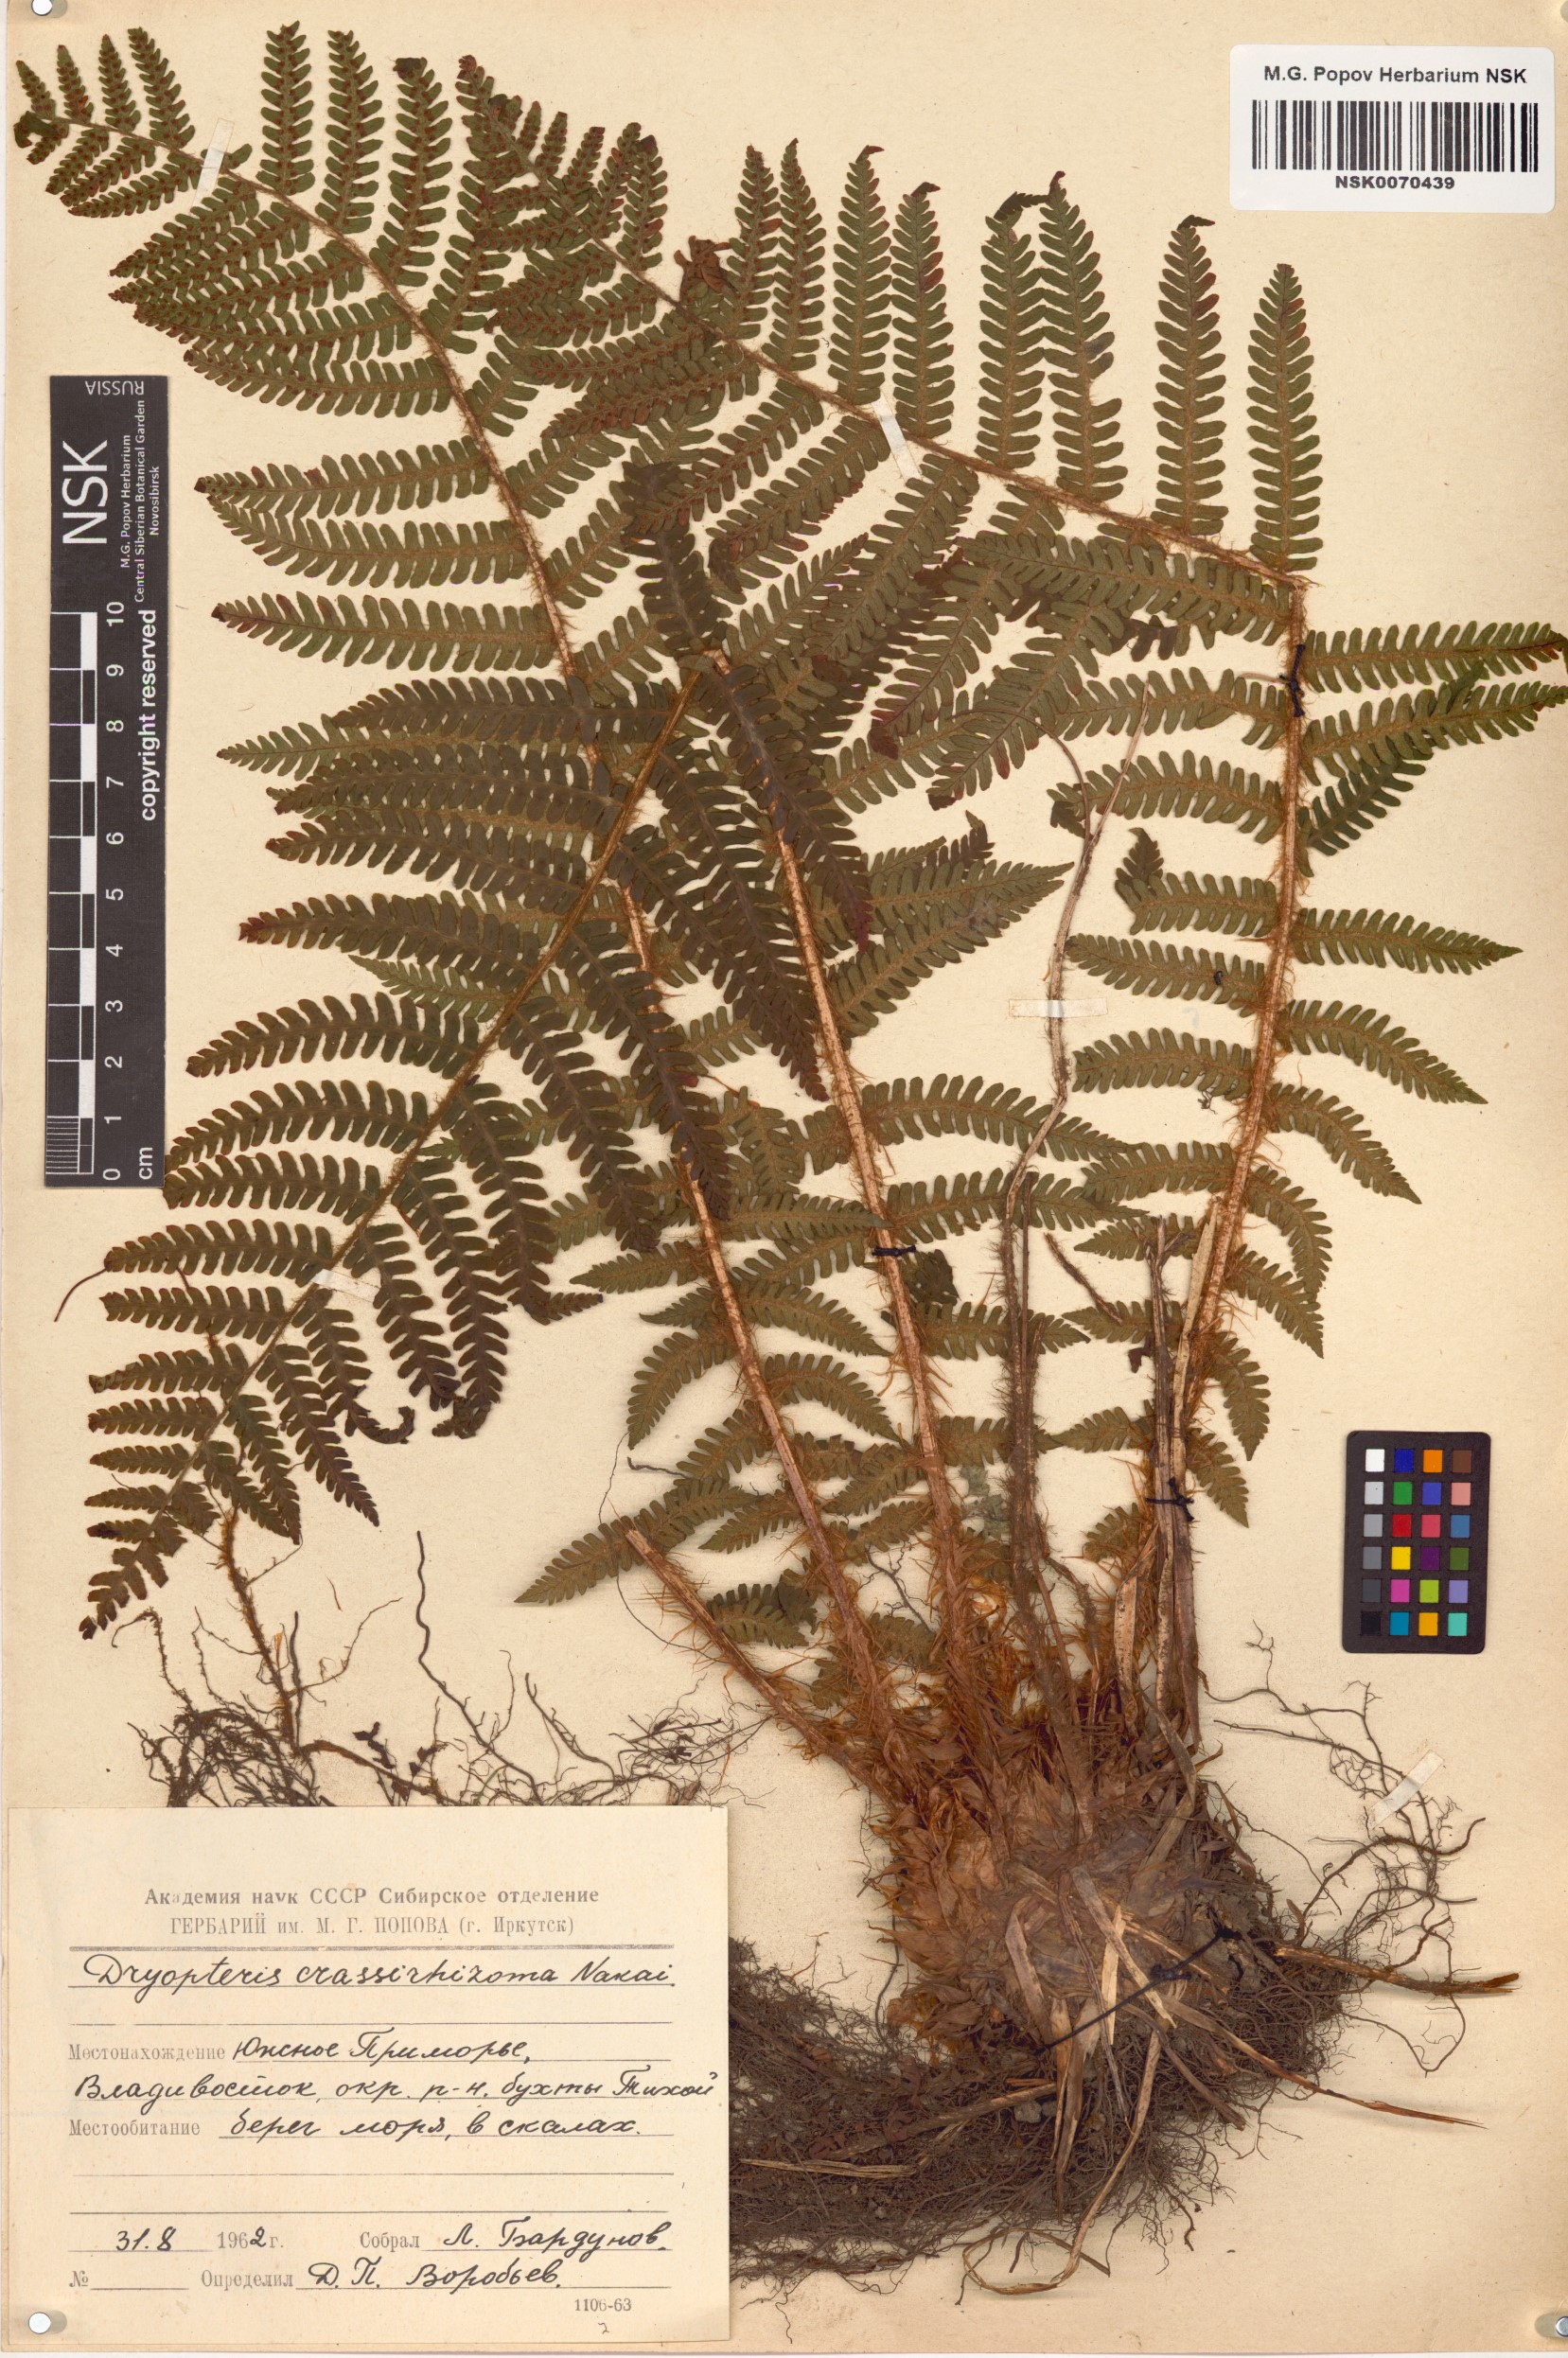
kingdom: Plantae
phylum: Tracheophyta
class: Polypodiopsida
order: Polypodiales
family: Dryopteridaceae
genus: Dryopteris
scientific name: Dryopteris crassirhizoma
